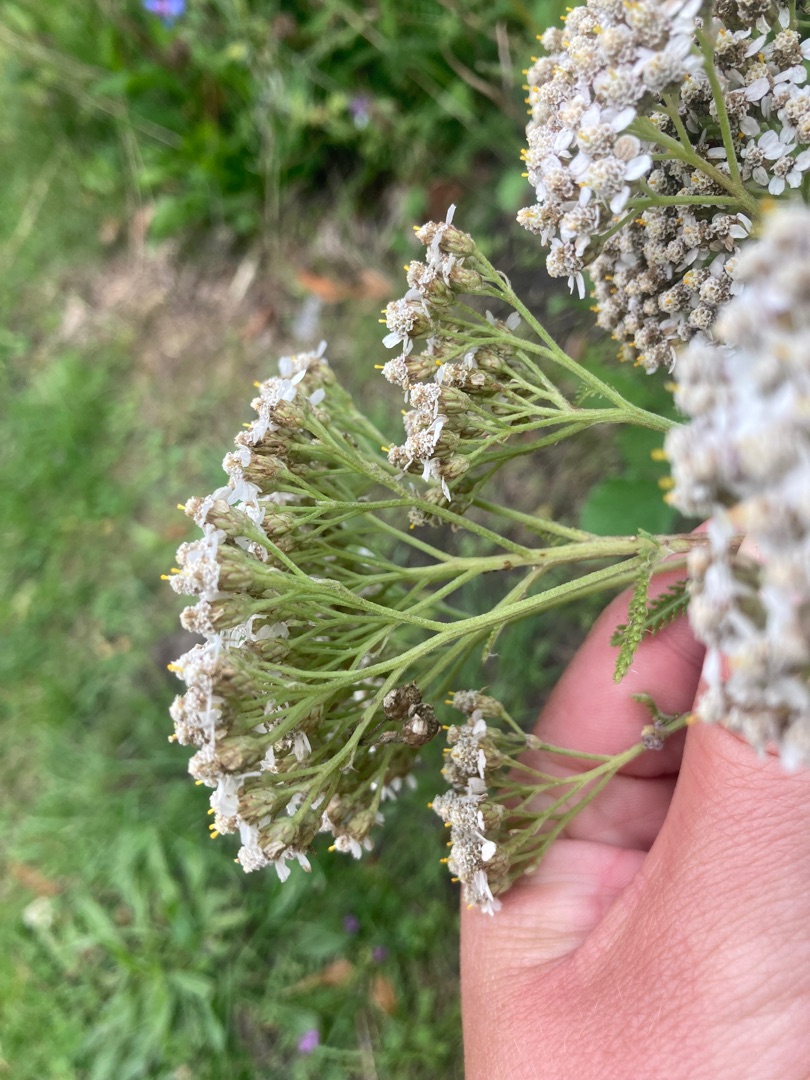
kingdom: Plantae
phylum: Tracheophyta
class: Magnoliopsida
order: Asterales
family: Asteraceae
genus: Achillea
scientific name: Achillea millefolium
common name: Almindelig røllike
